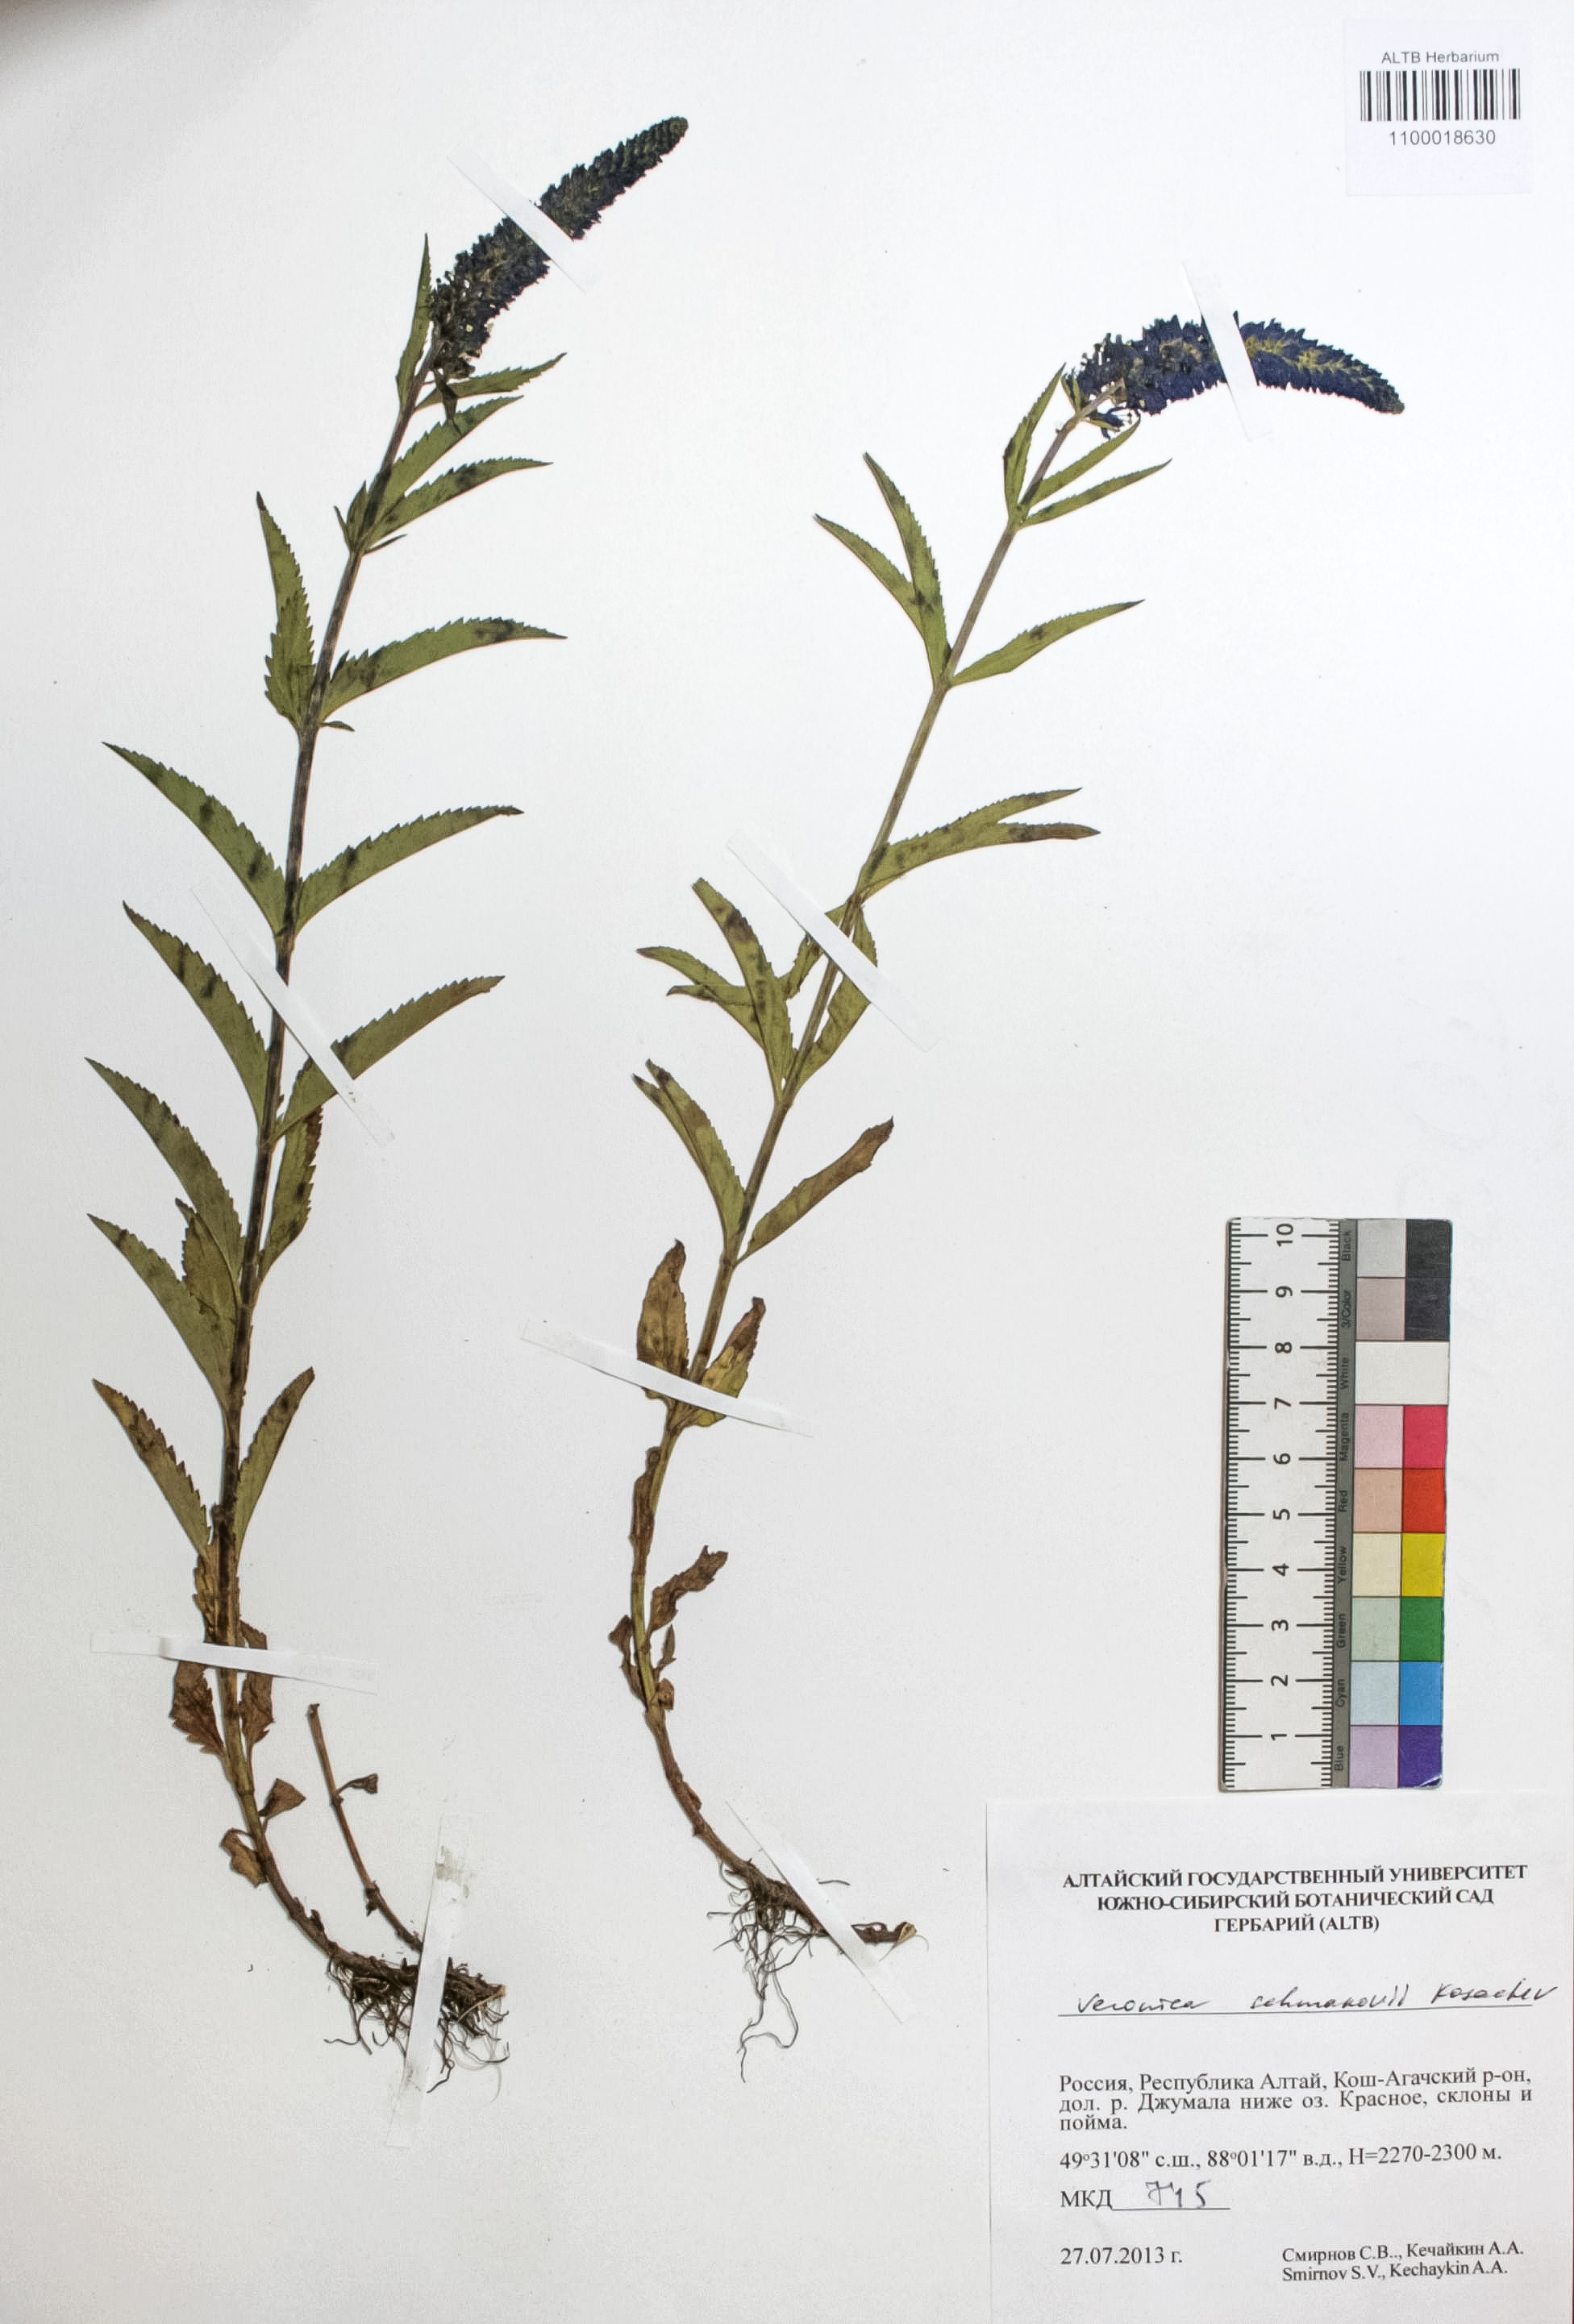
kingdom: Plantae
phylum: Tracheophyta
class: Magnoliopsida
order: Lamiales
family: Plantaginaceae
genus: Veronica
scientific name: Veronica schmakovii
